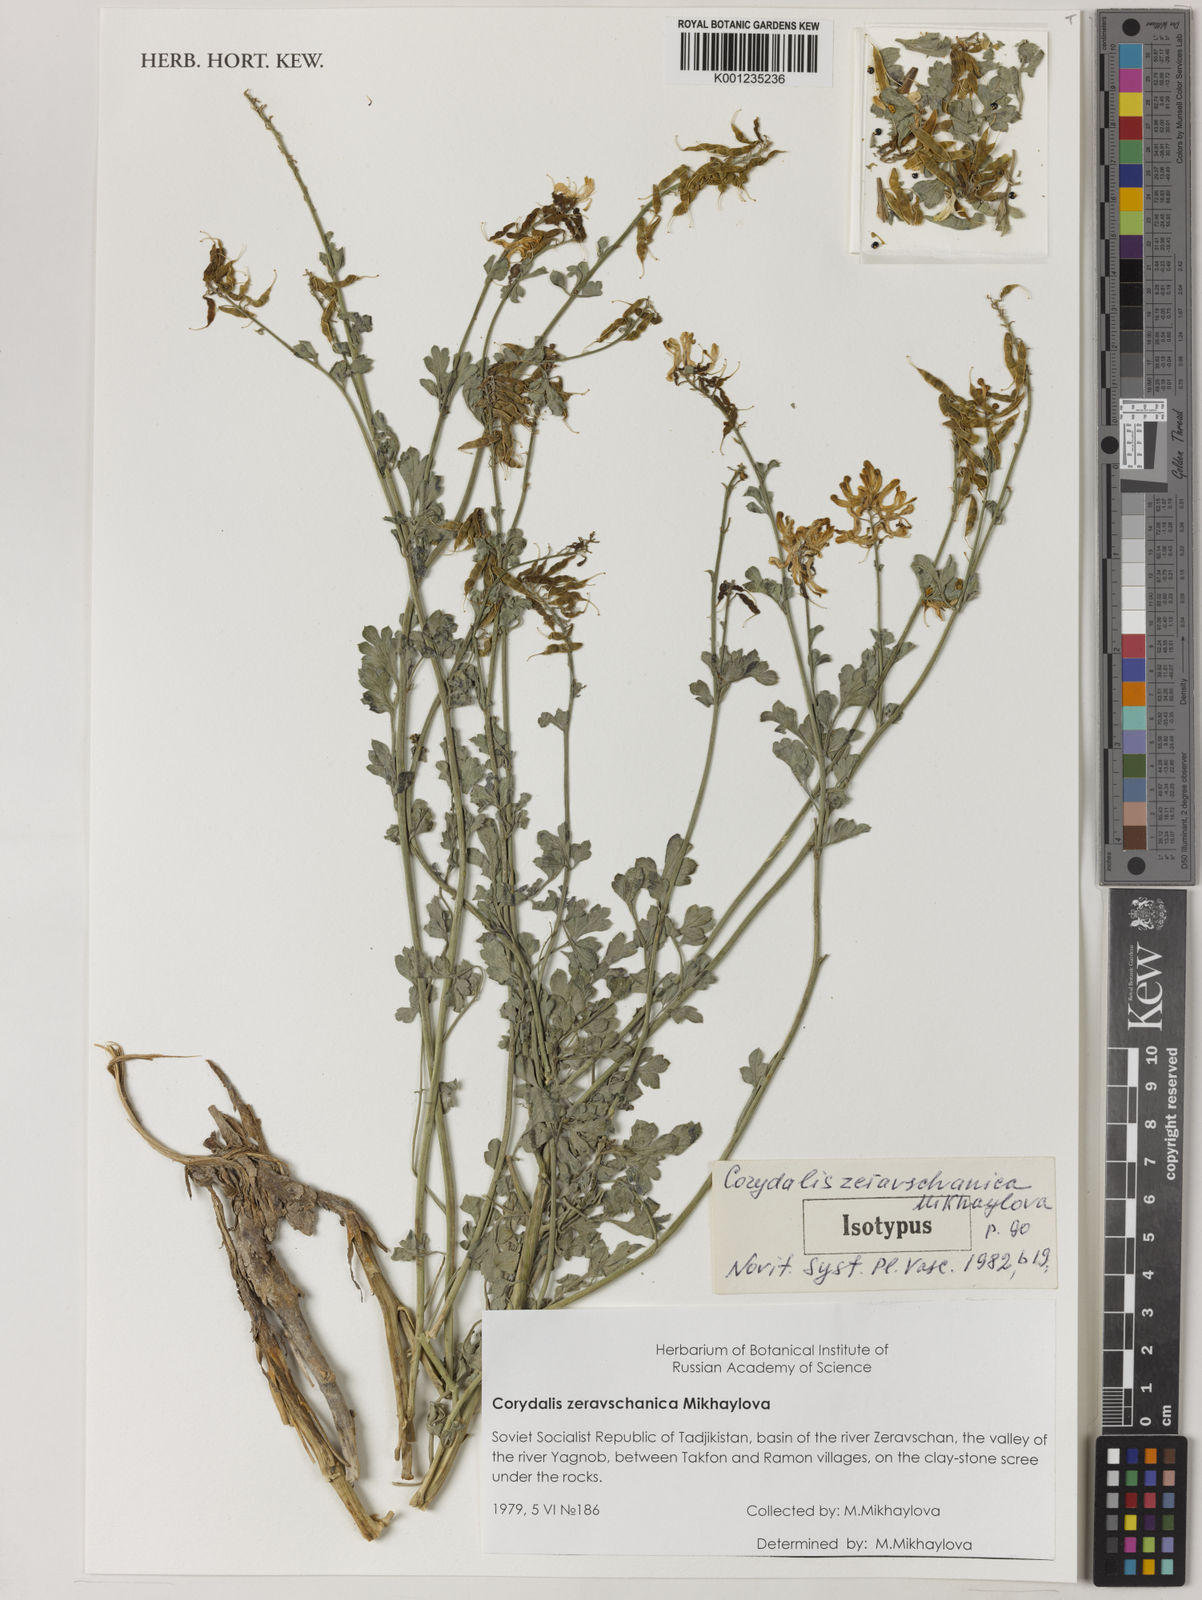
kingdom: Plantae
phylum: Tracheophyta
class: Magnoliopsida
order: Ranunculales
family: Papaveraceae
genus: Corydalis
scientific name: Corydalis
